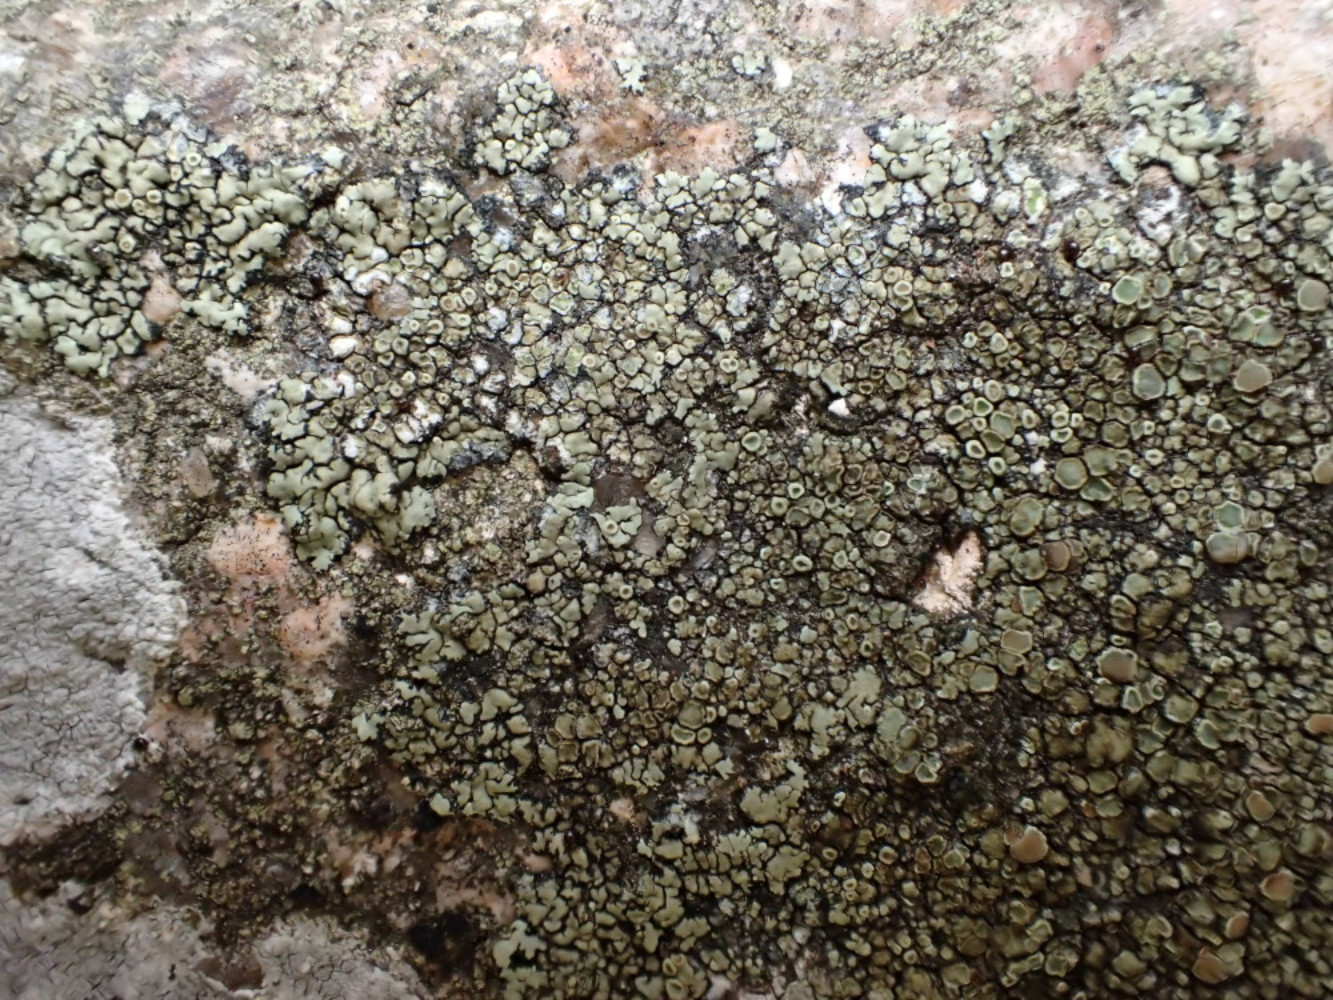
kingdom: Fungi
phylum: Ascomycota
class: Lecanoromycetes
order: Lecanorales
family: Lecanoraceae
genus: Protoparmeliopsis
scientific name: Protoparmeliopsis muralis
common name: randfliget kantskivelav
